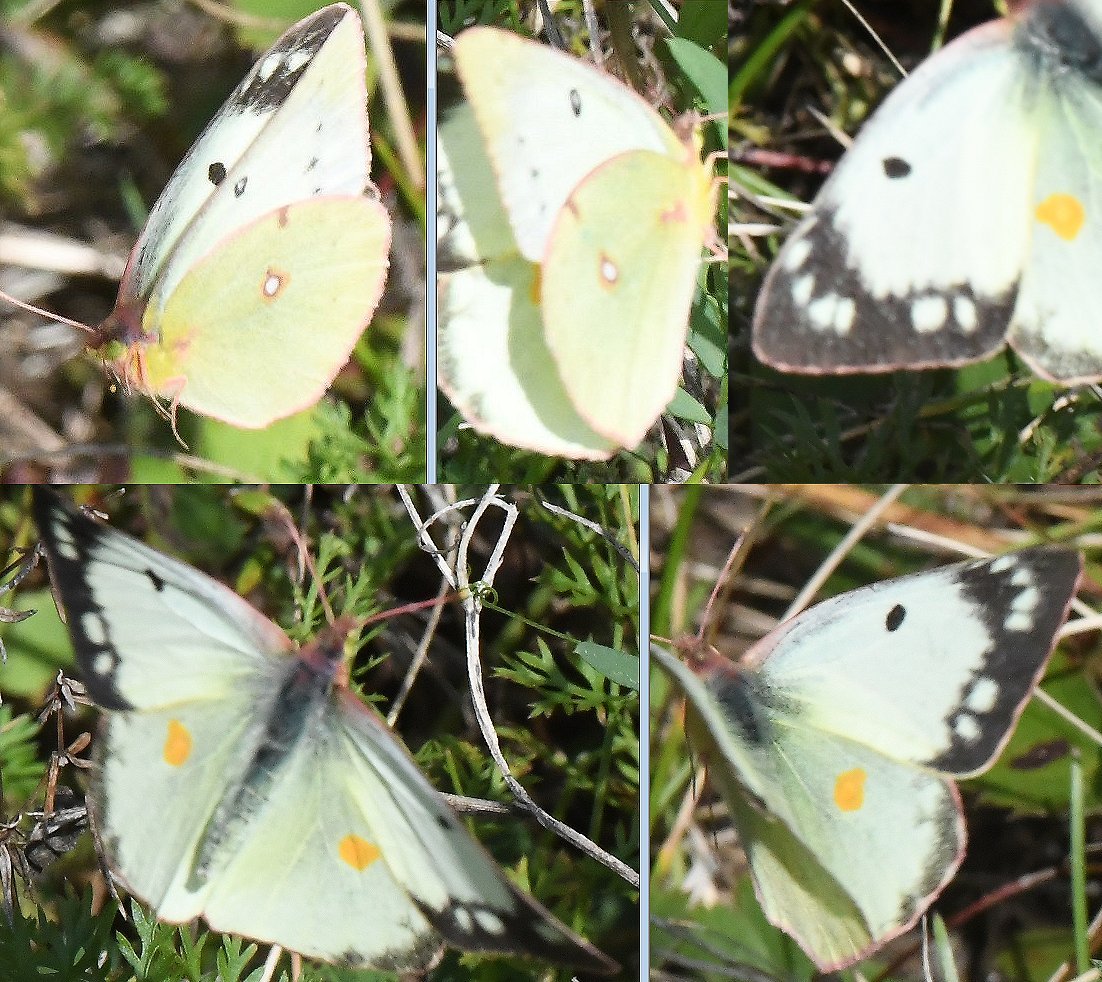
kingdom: Animalia
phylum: Arthropoda
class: Insecta
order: Lepidoptera
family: Pieridae
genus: Colias
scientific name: Colias
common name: Clouded Yellows
